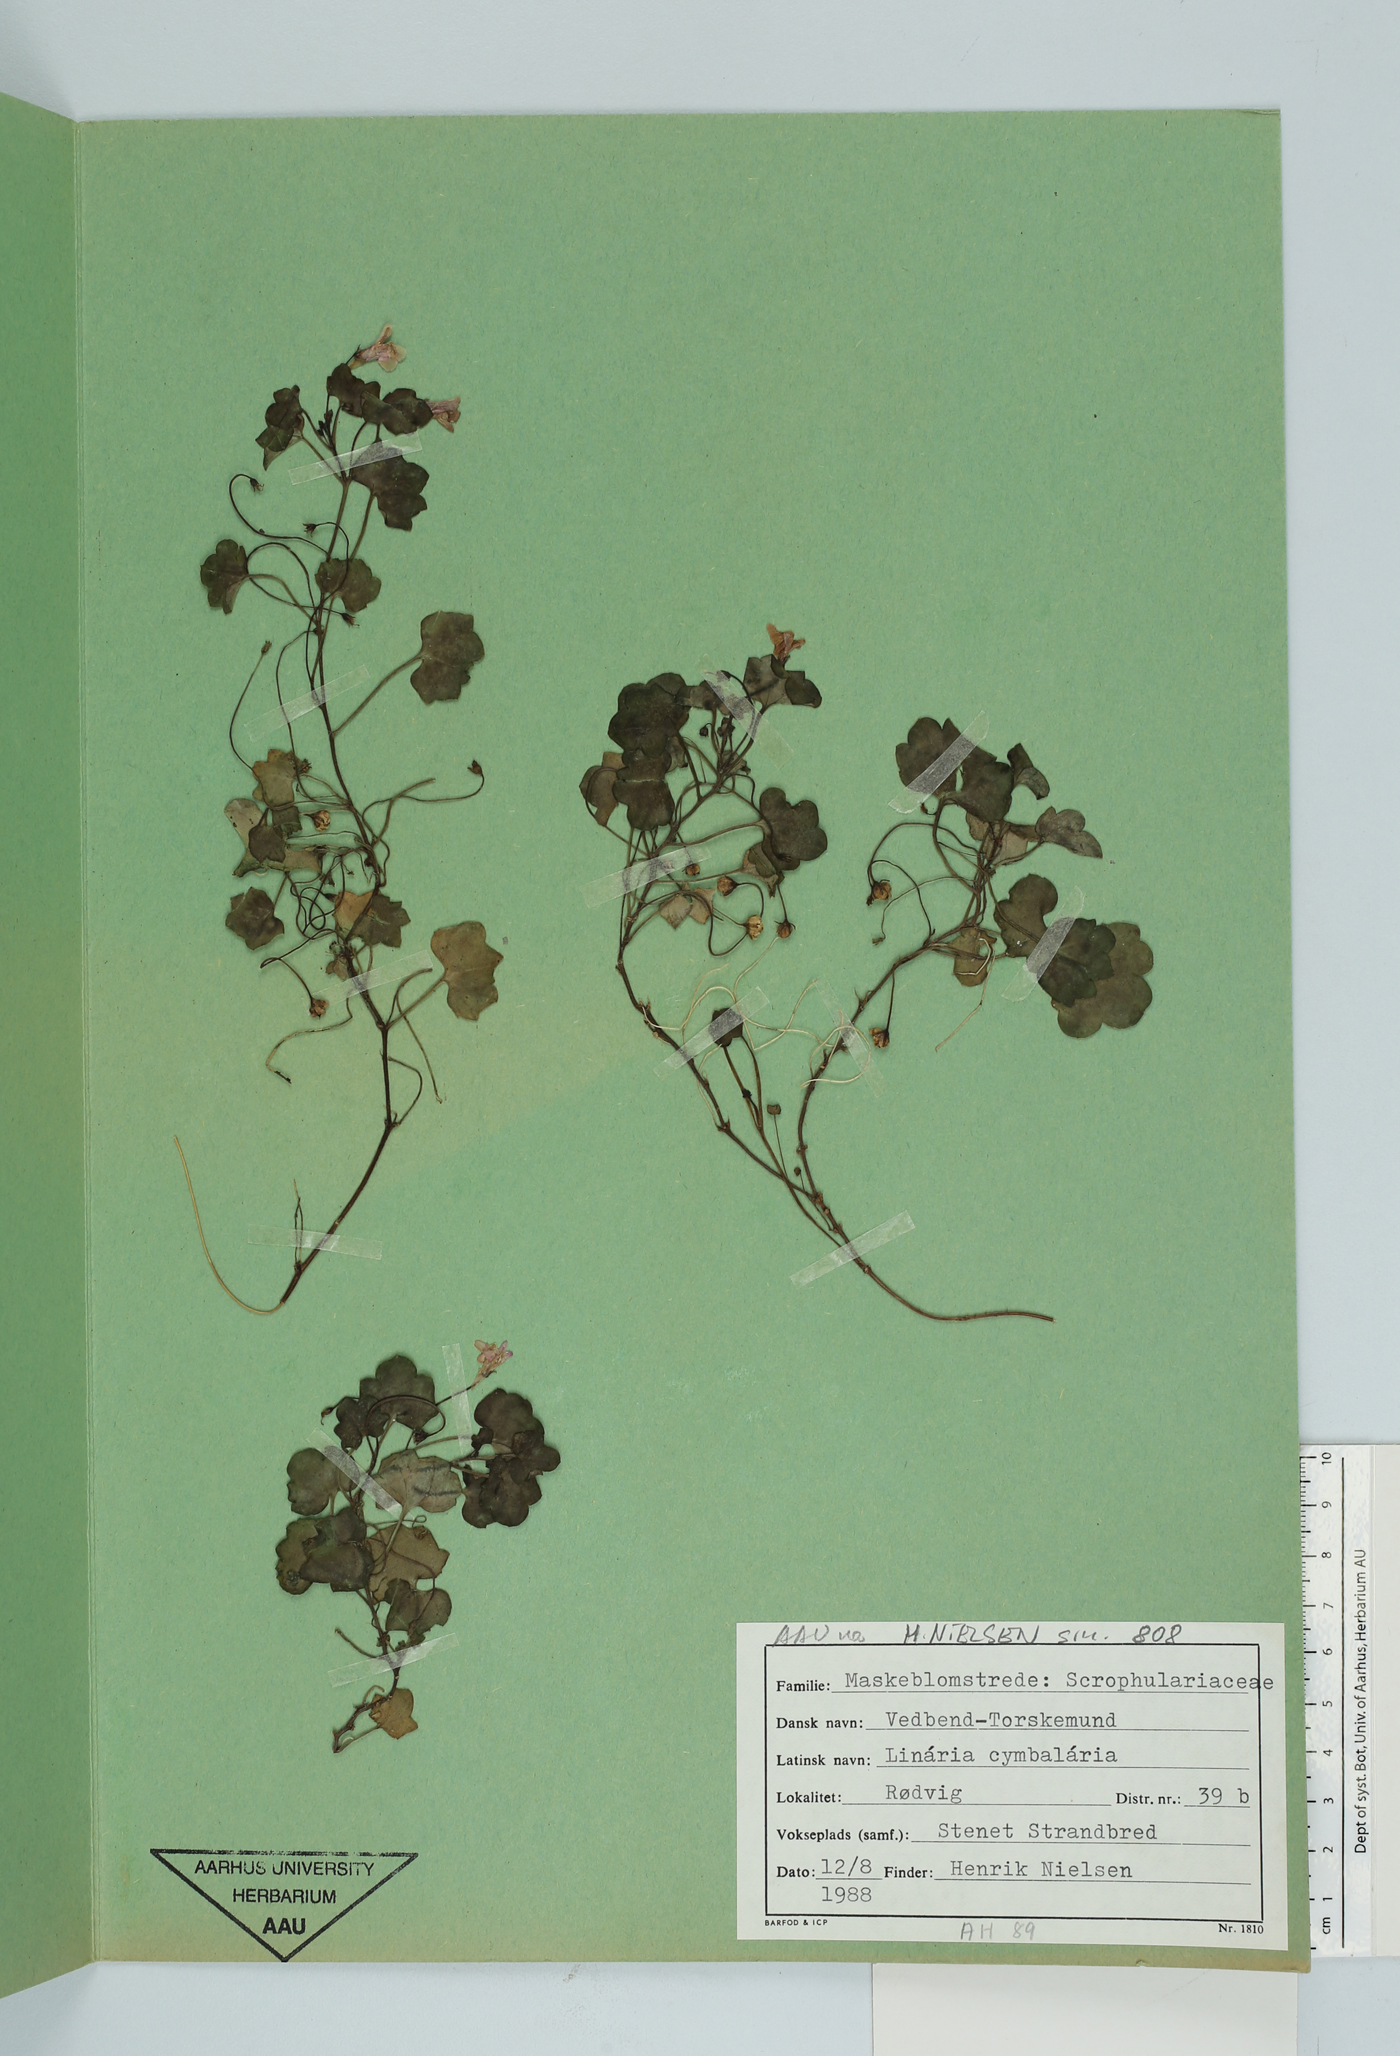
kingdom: Plantae
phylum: Tracheophyta
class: Magnoliopsida
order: Lamiales
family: Plantaginaceae
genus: Cymbalaria
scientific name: Cymbalaria muralis
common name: Ivy-leaved toadflax
